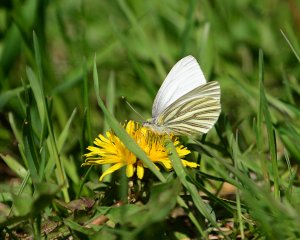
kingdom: Animalia
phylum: Arthropoda
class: Insecta
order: Lepidoptera
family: Pieridae
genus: Pieris
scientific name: Pieris oleracea
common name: Mustard White
